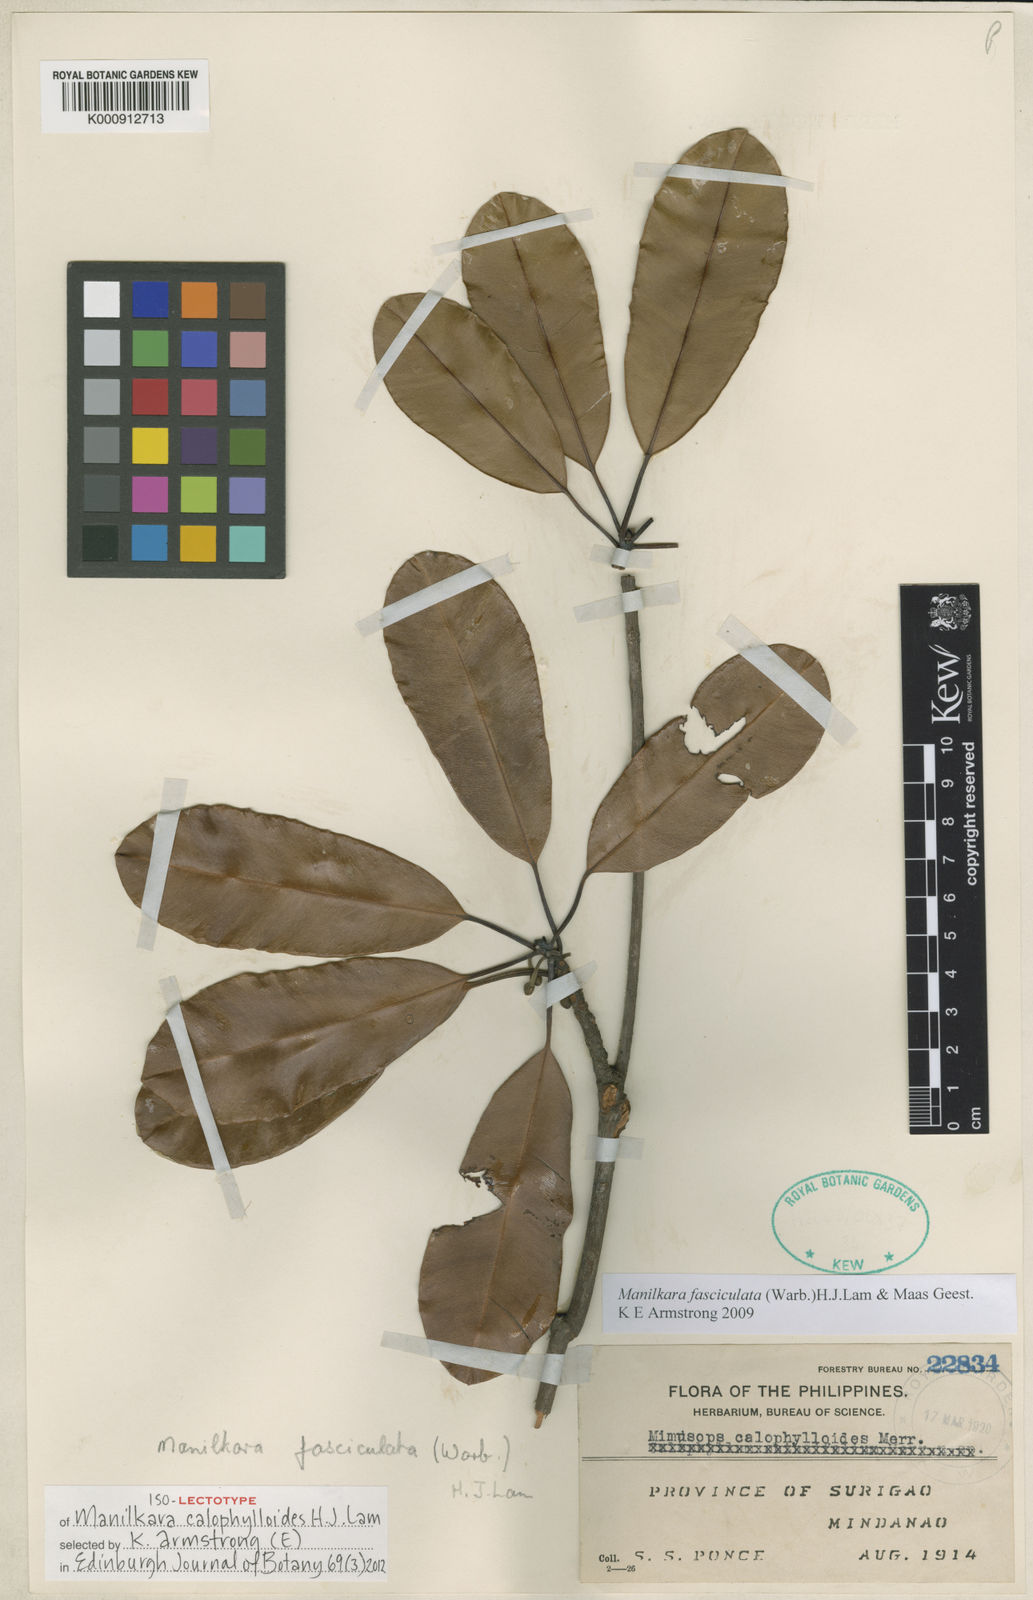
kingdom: Plantae
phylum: Tracheophyta
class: Magnoliopsida
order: Ericales
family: Sapotaceae
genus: Manilkara
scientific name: Manilkara fasciculata
